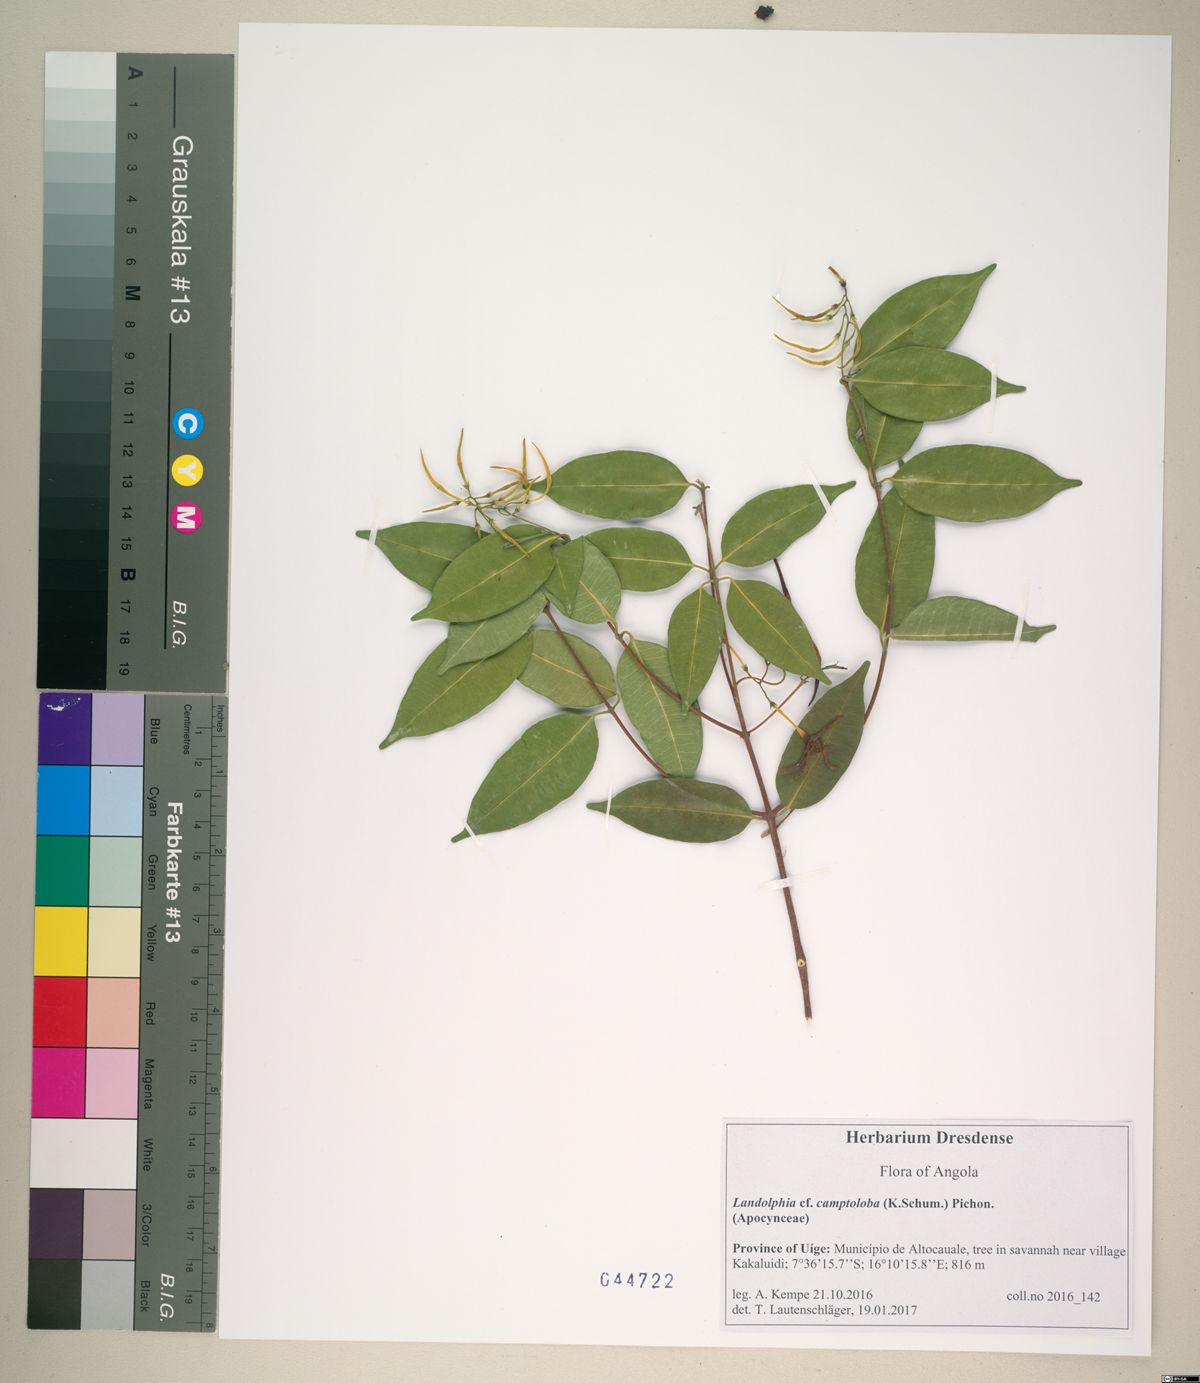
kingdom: Plantae
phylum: Tracheophyta
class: Magnoliopsida
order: Gentianales
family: Apocynaceae
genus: Landolphia
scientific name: Landolphia camptoloba
